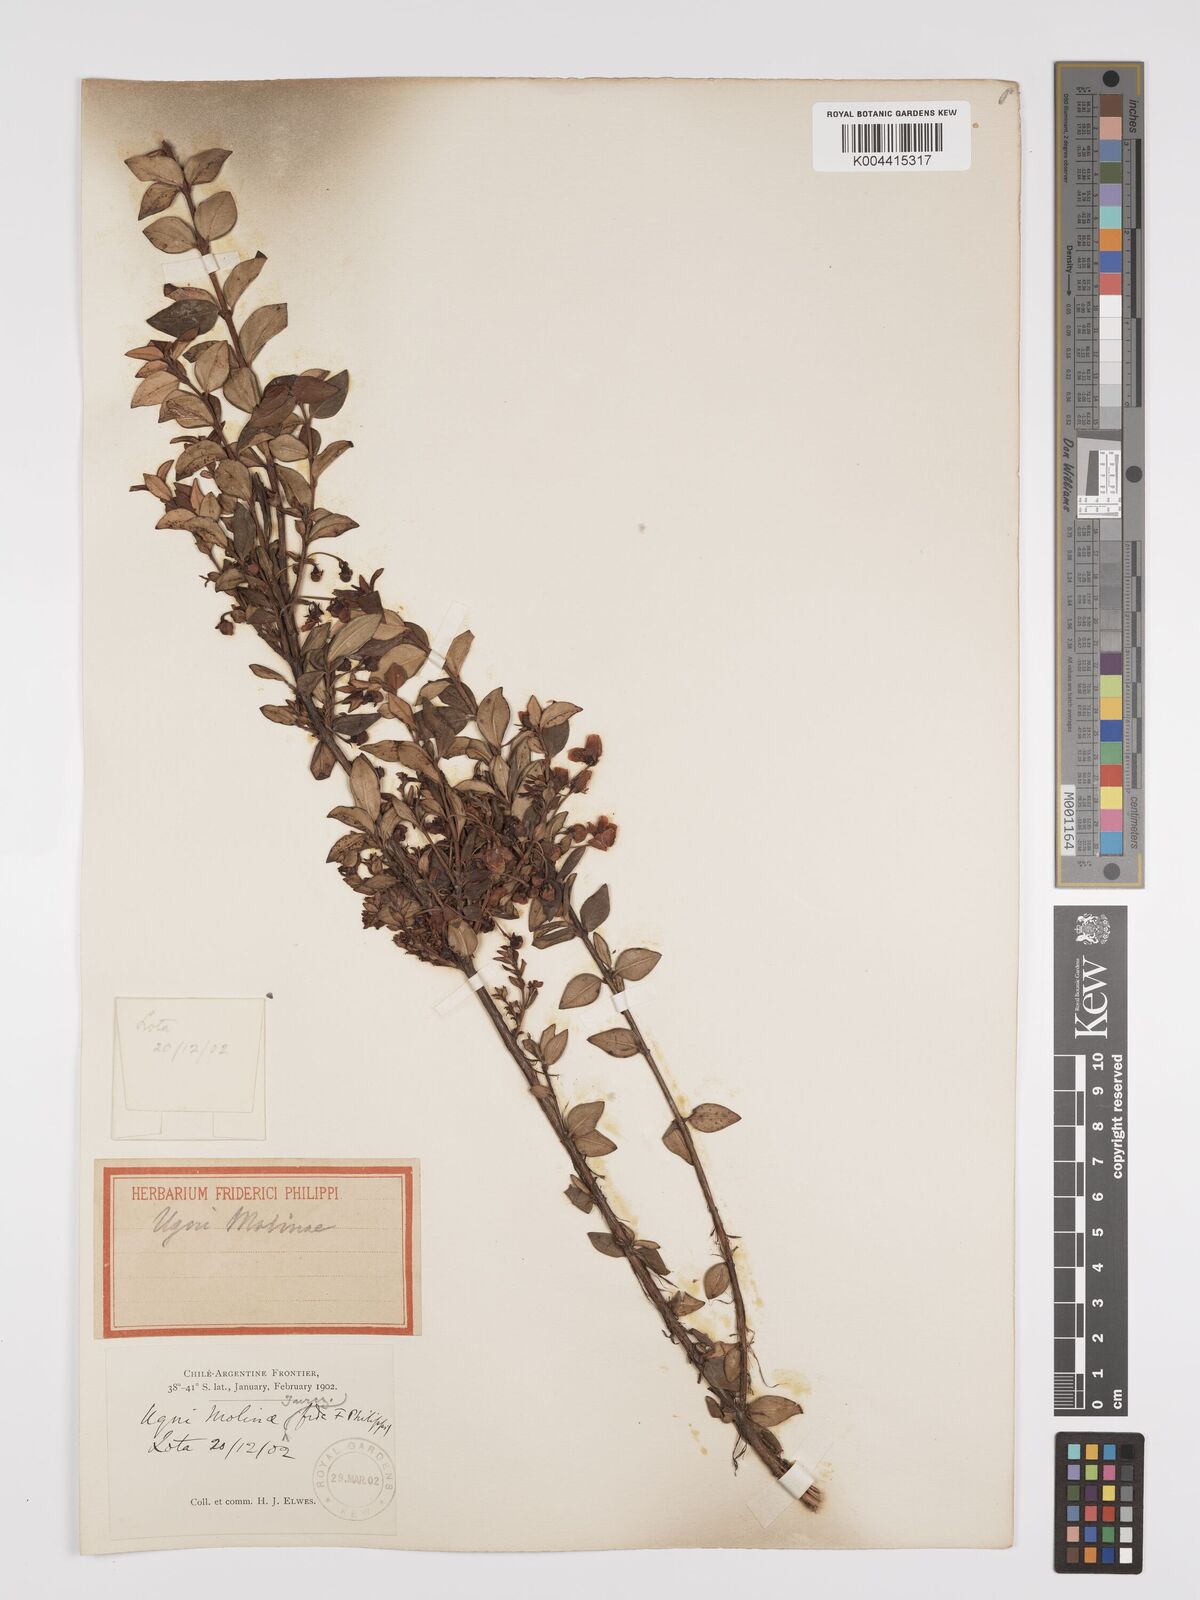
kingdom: Plantae
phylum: Tracheophyta
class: Magnoliopsida
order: Myrtales
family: Myrtaceae
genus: Ugni
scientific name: Ugni molinae
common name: Chilean-guava
